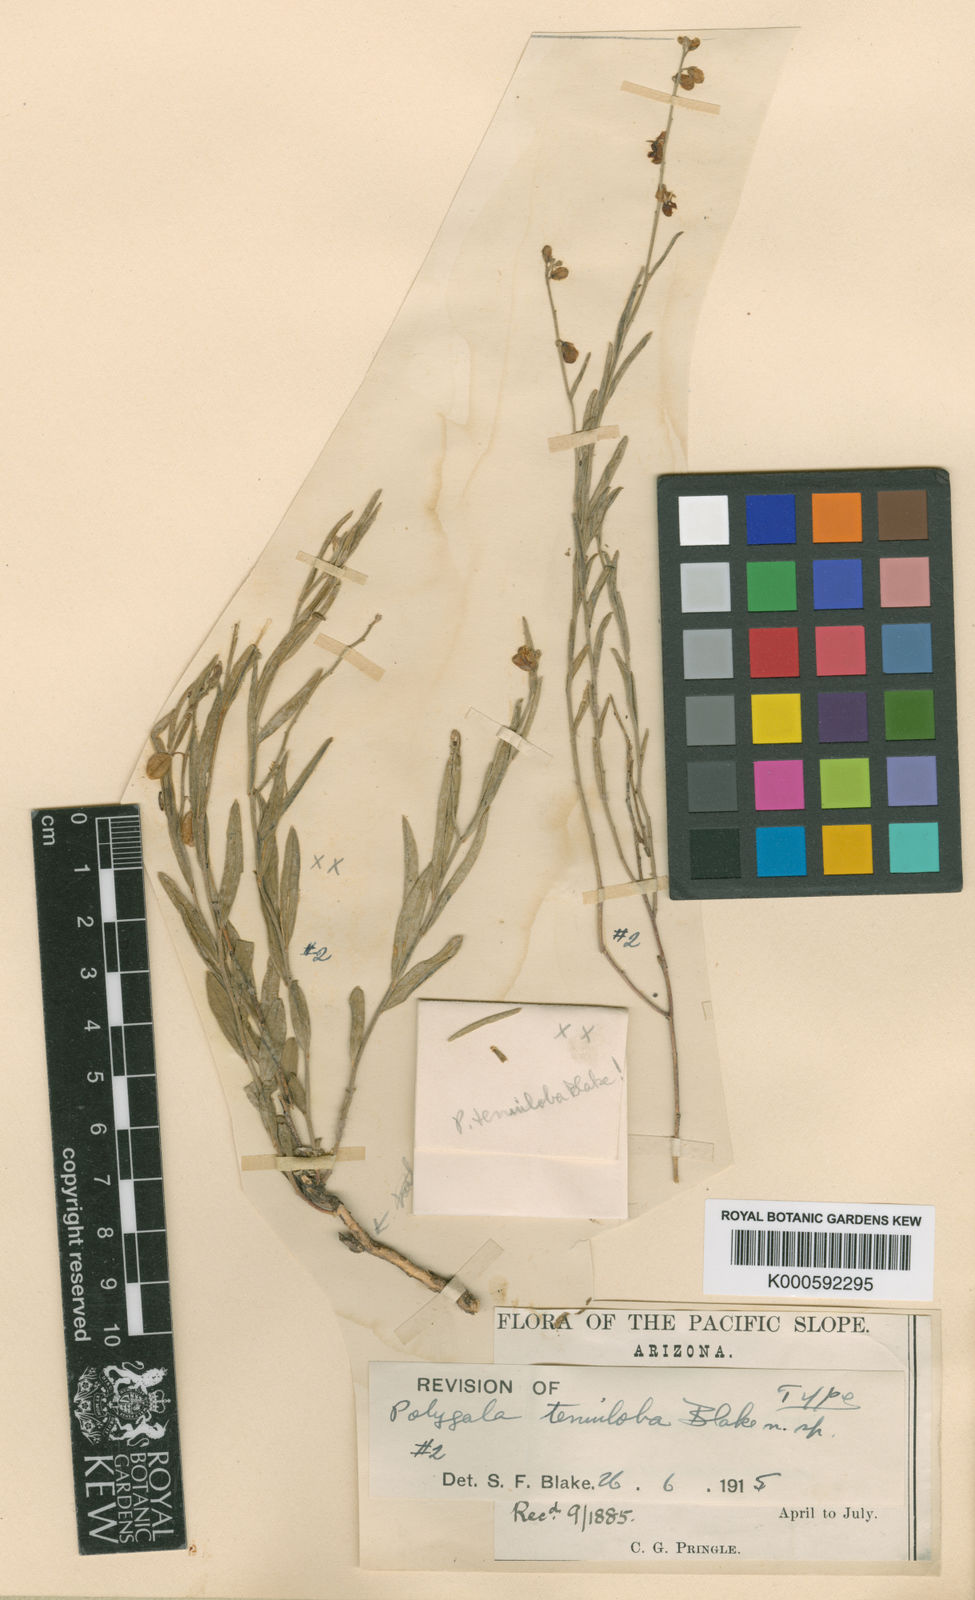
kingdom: Plantae
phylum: Tracheophyta
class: Magnoliopsida
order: Fabales
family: Polygalaceae
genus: Hebecarpa
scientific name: Hebecarpa barbeyana
